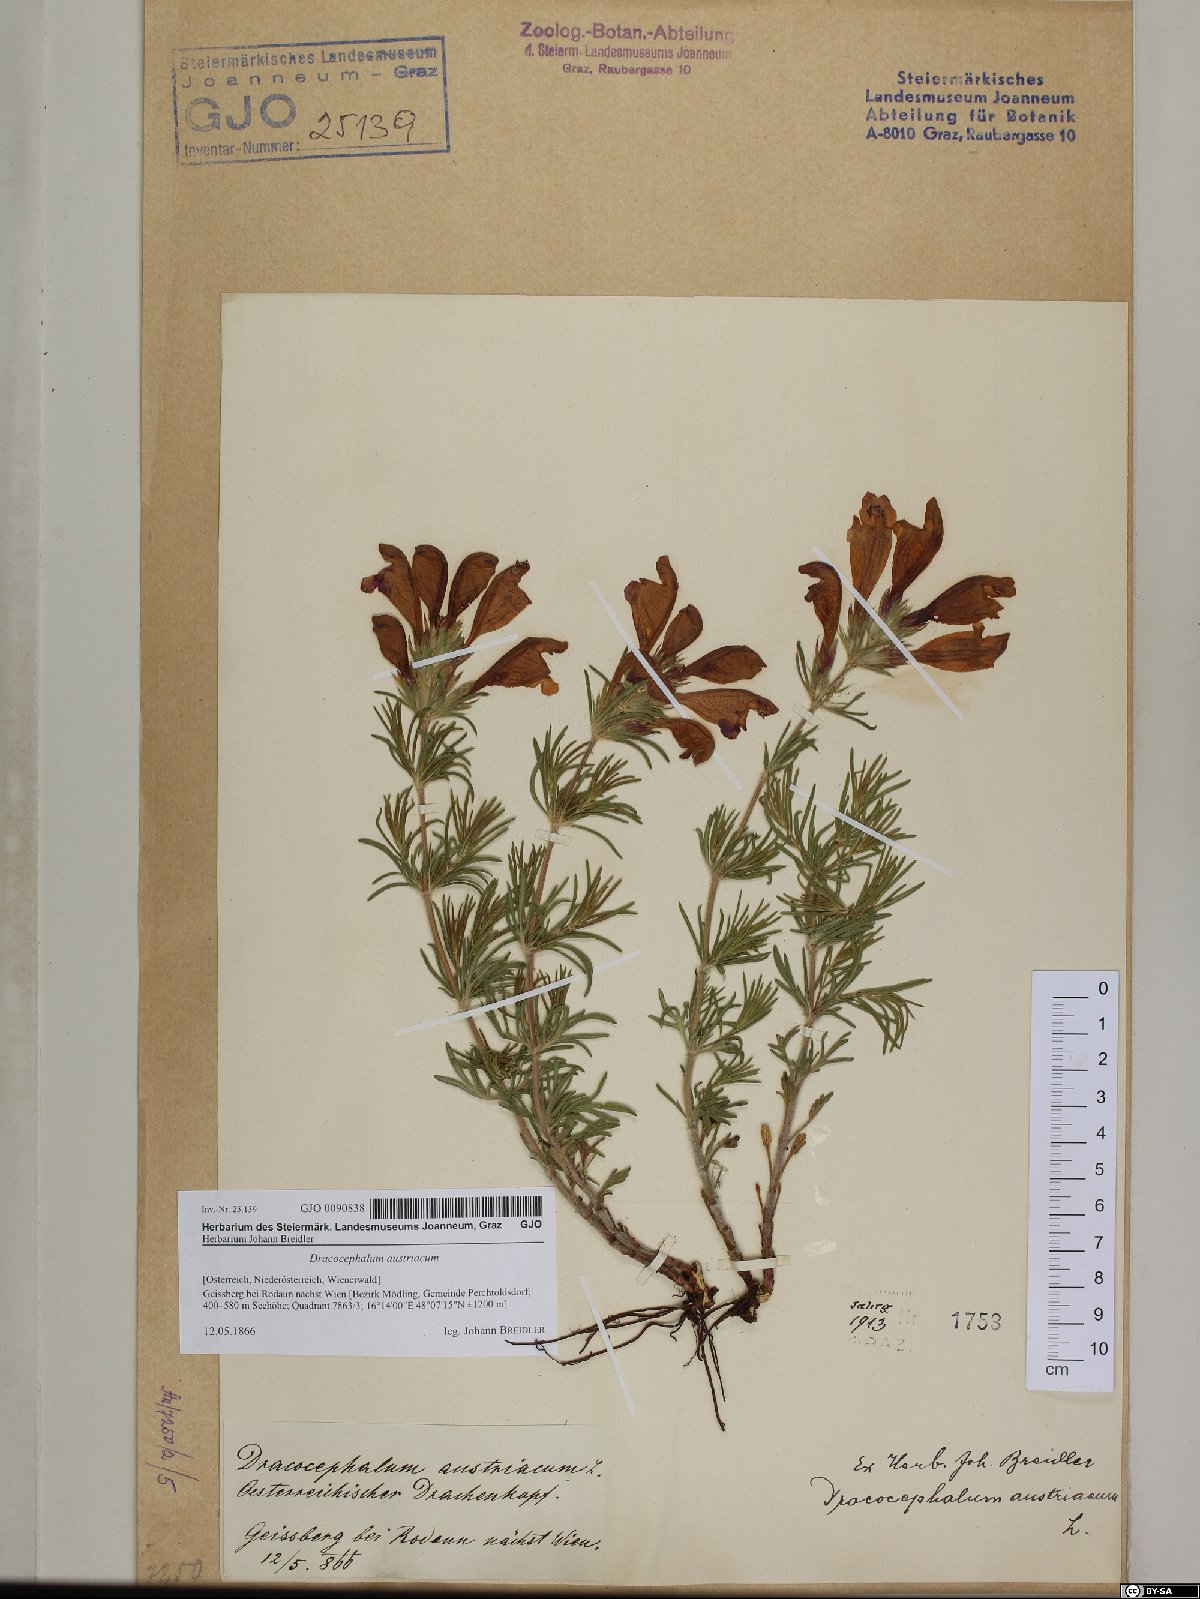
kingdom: Plantae
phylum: Tracheophyta
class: Magnoliopsida
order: Lamiales
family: Lamiaceae
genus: Dracocephalum
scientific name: Dracocephalum austriacum
